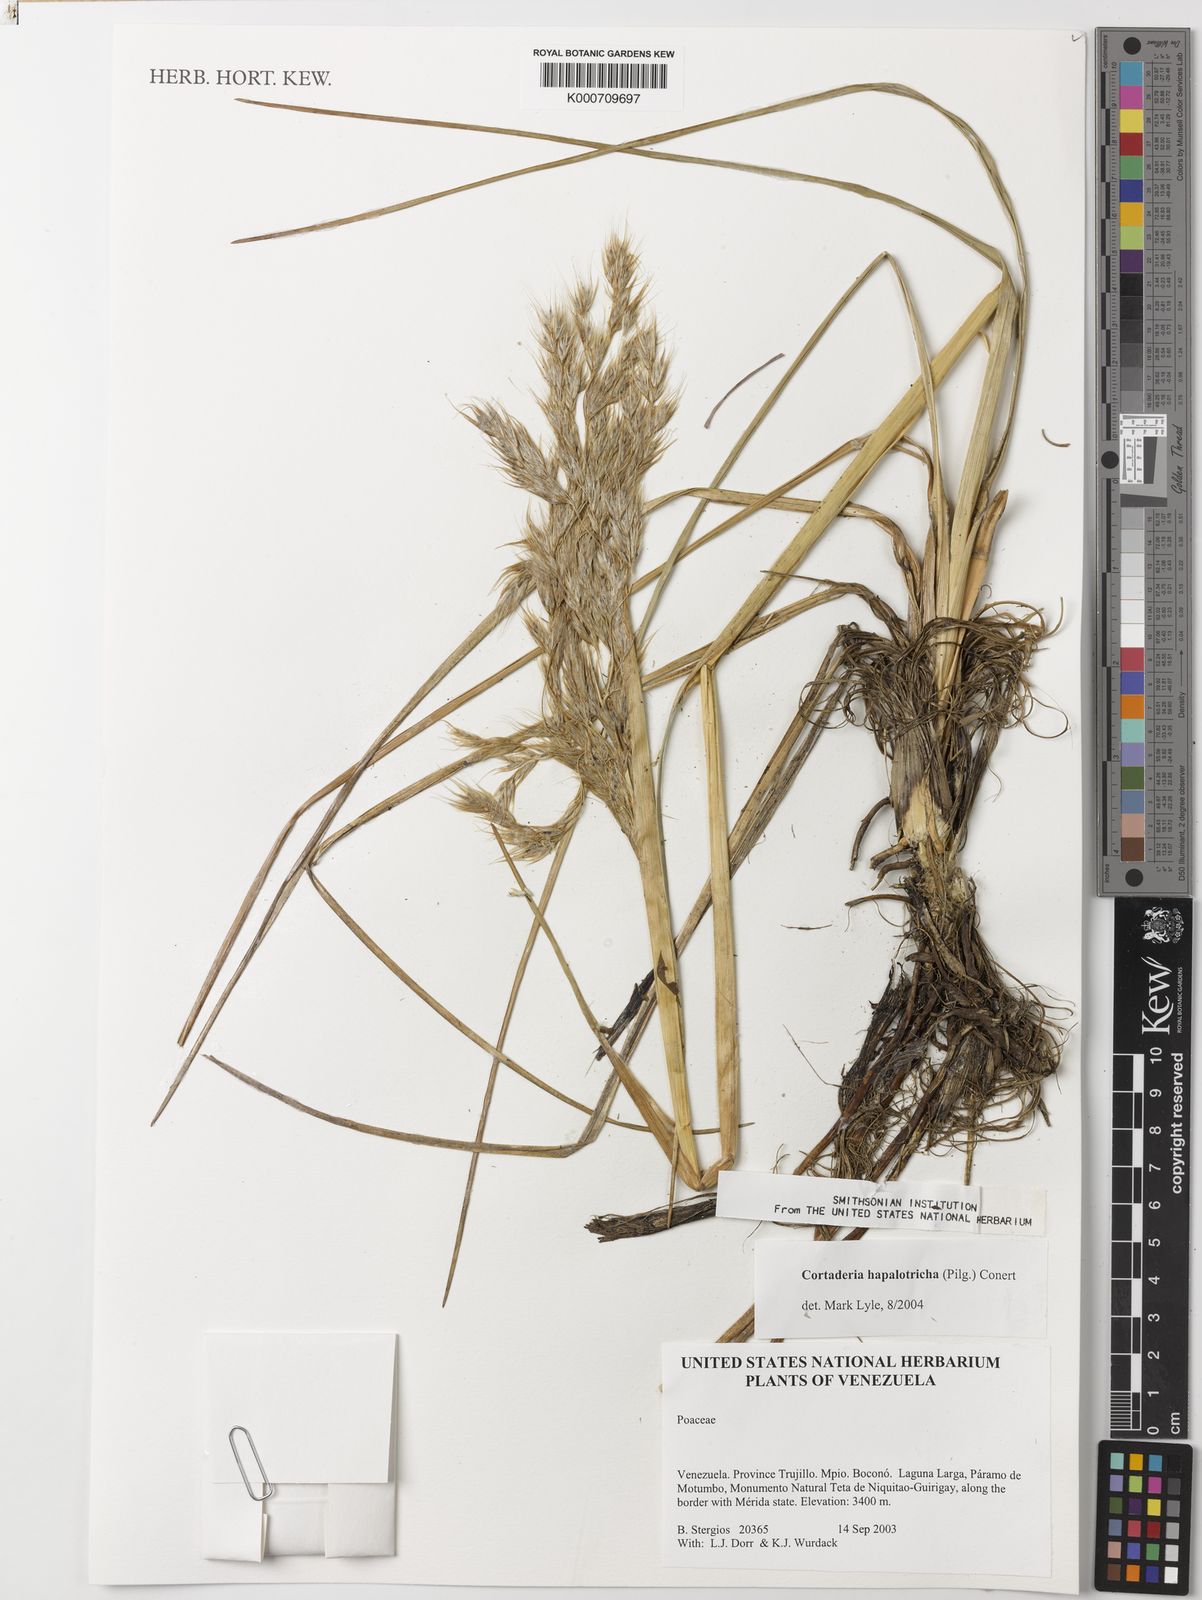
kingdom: Plantae
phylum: Tracheophyta
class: Liliopsida
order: Poales
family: Poaceae
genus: Cortaderia
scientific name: Cortaderia hapalotricha
